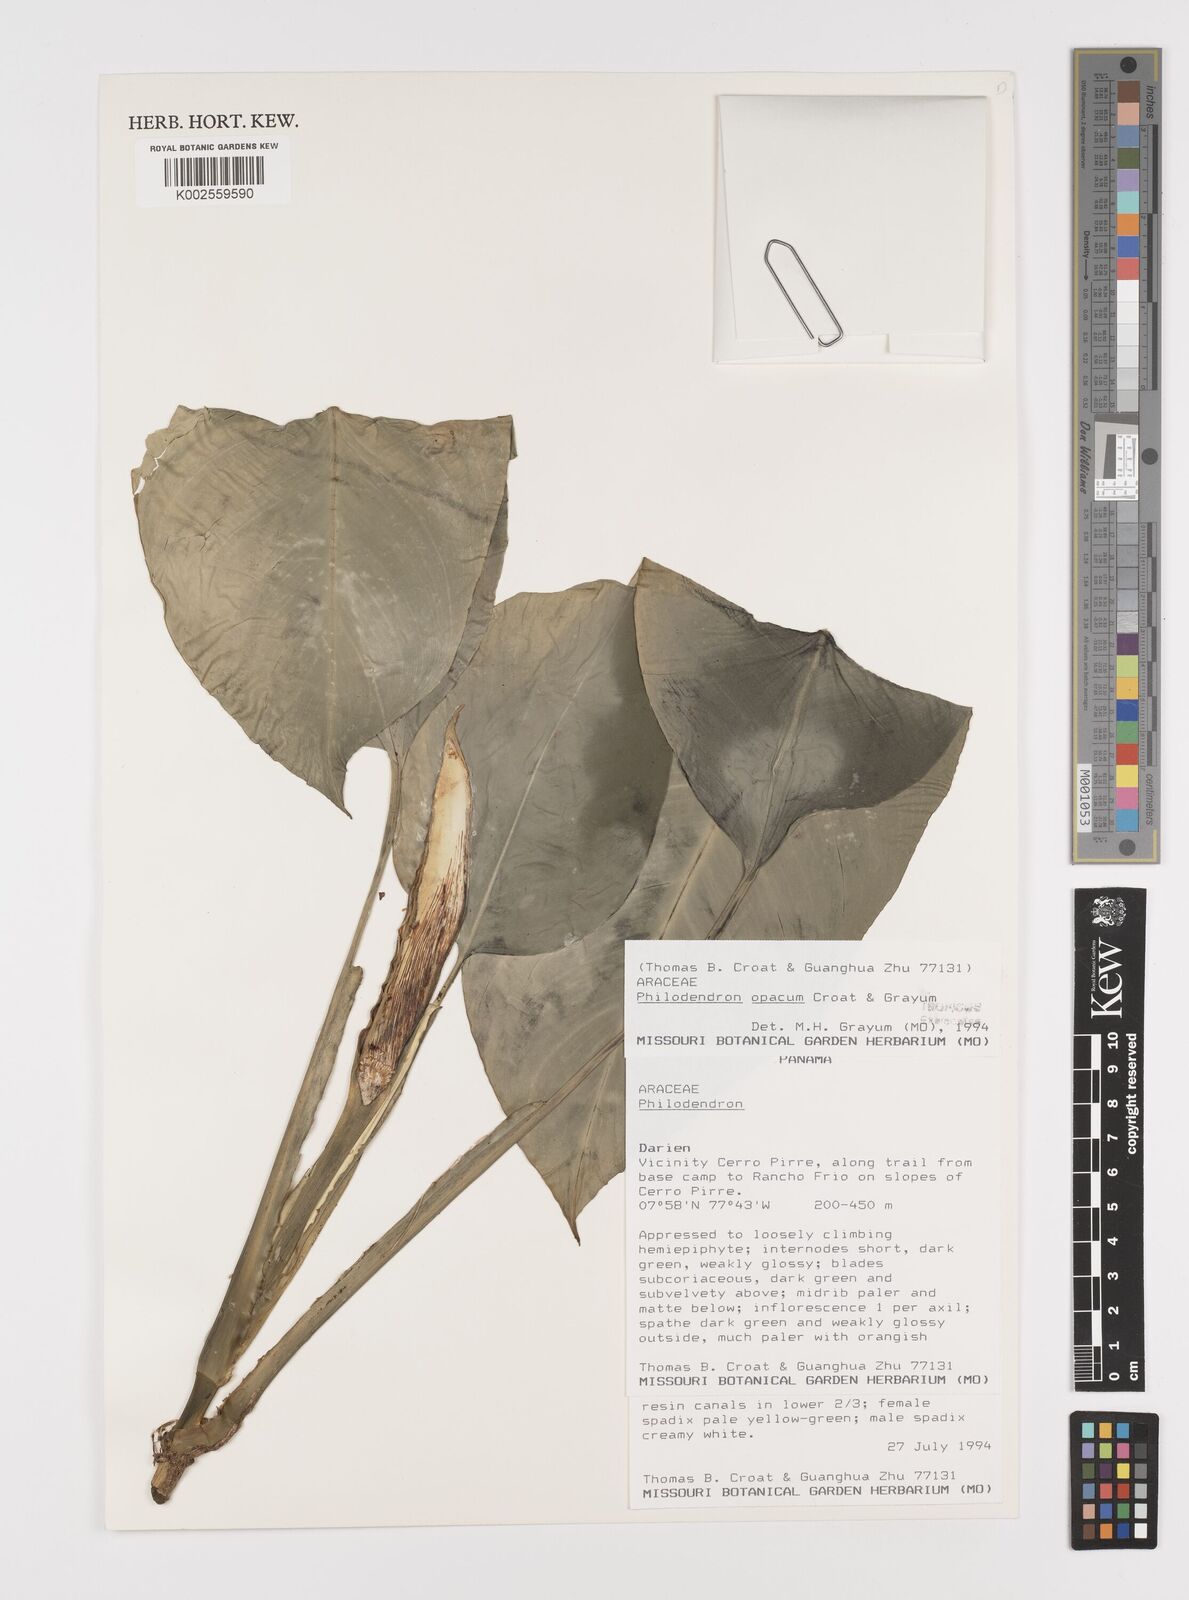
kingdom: Plantae
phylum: Tracheophyta
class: Liliopsida
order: Alismatales
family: Araceae
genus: Philodendron
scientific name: Philodendron opacum
